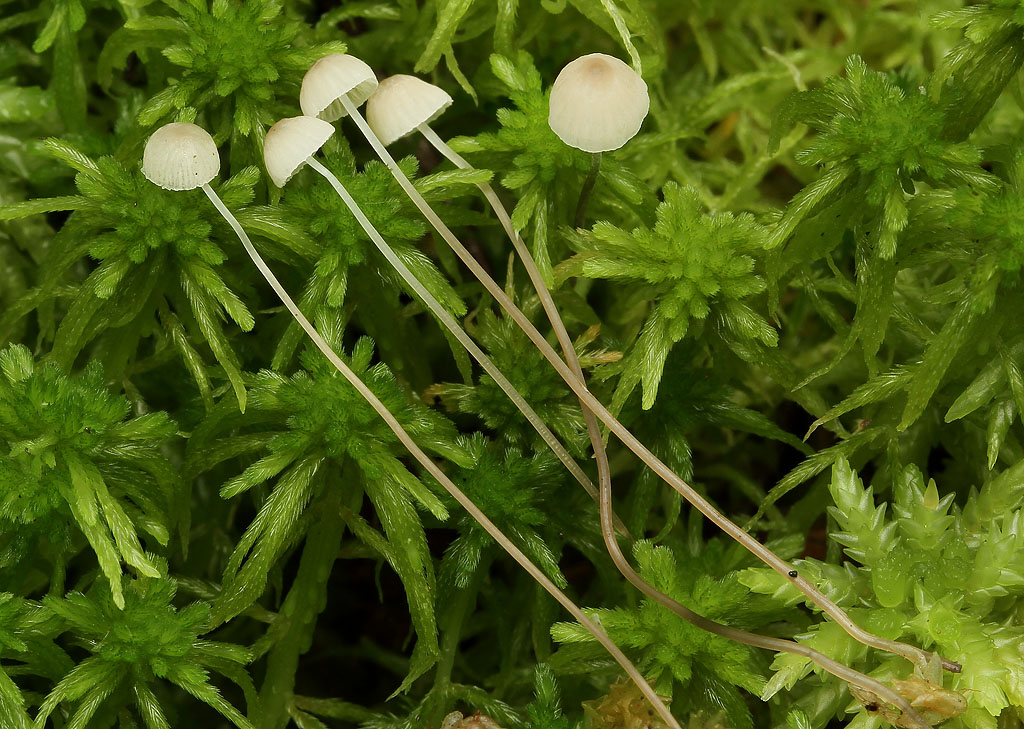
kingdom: Fungi
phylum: Basidiomycota
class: Agaricomycetes
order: Agaricales
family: Mycenaceae
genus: Mycena
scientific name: Mycena filopes
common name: jod-huesvamp
